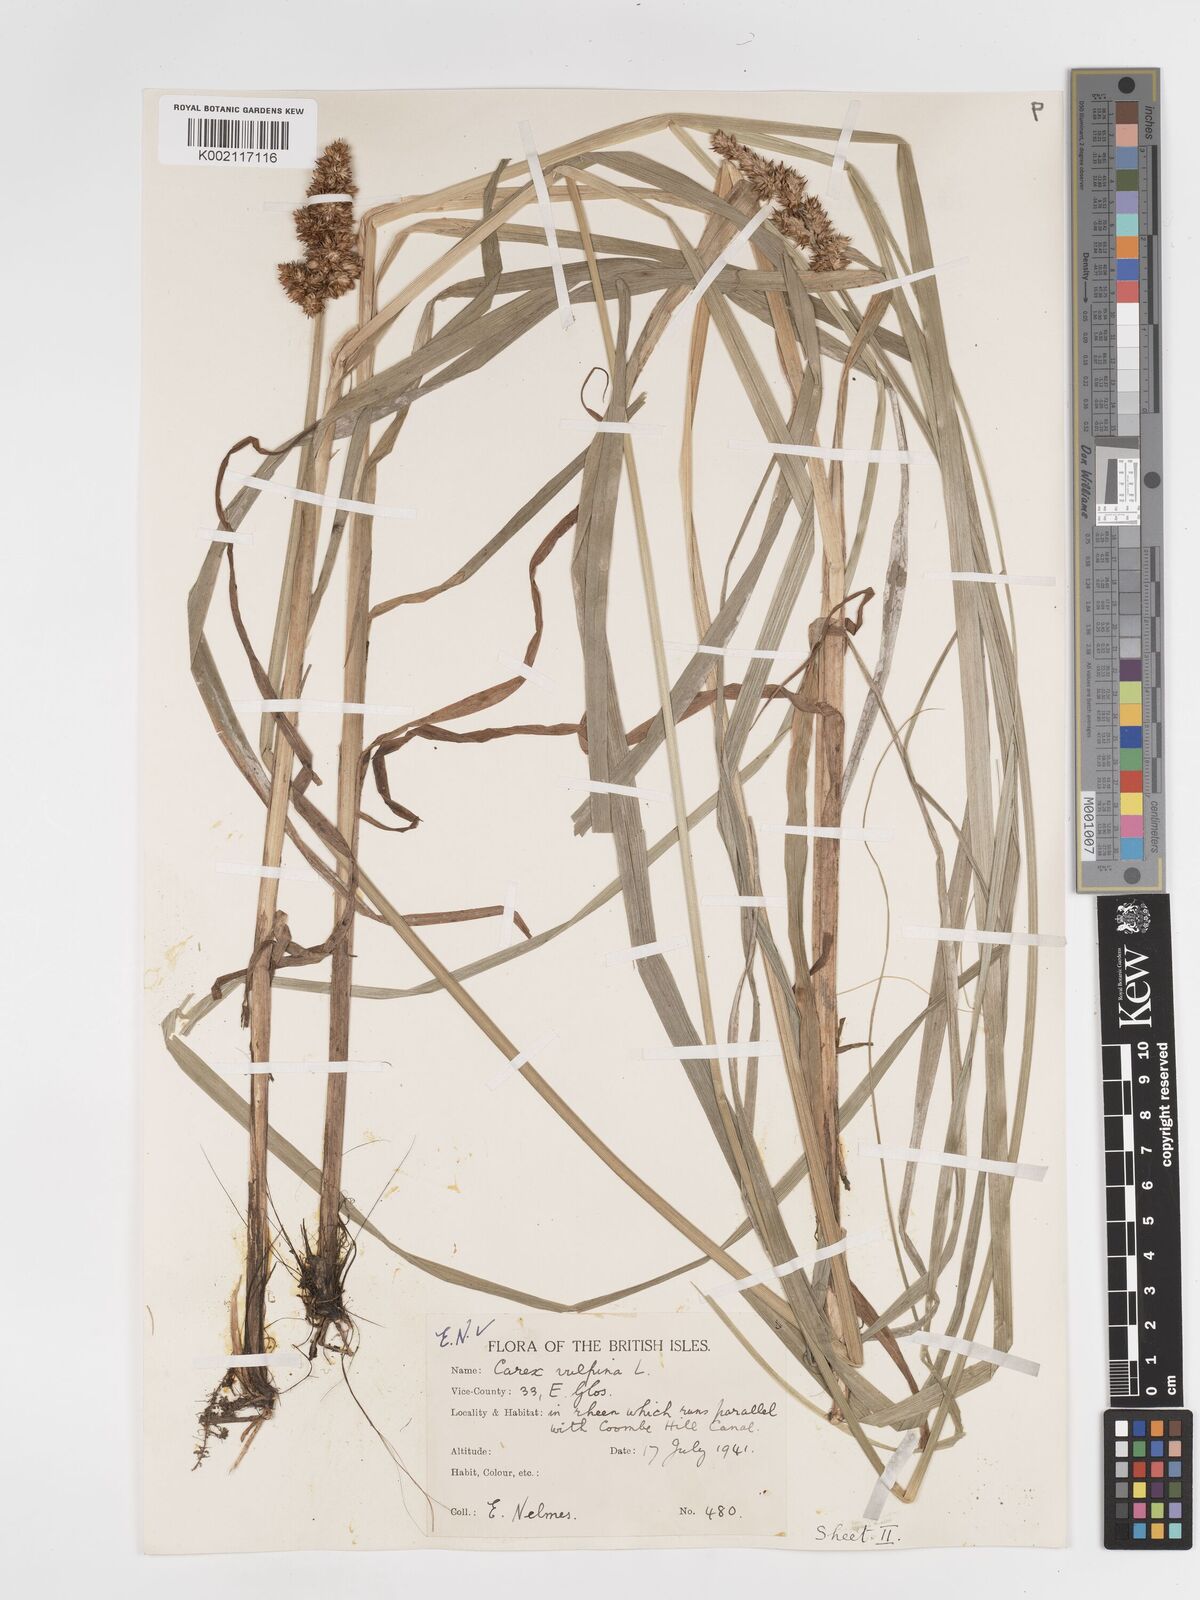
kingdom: Plantae
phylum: Tracheophyta
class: Liliopsida
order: Poales
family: Cyperaceae
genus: Carex
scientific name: Carex vulpina
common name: True fox-sedge
